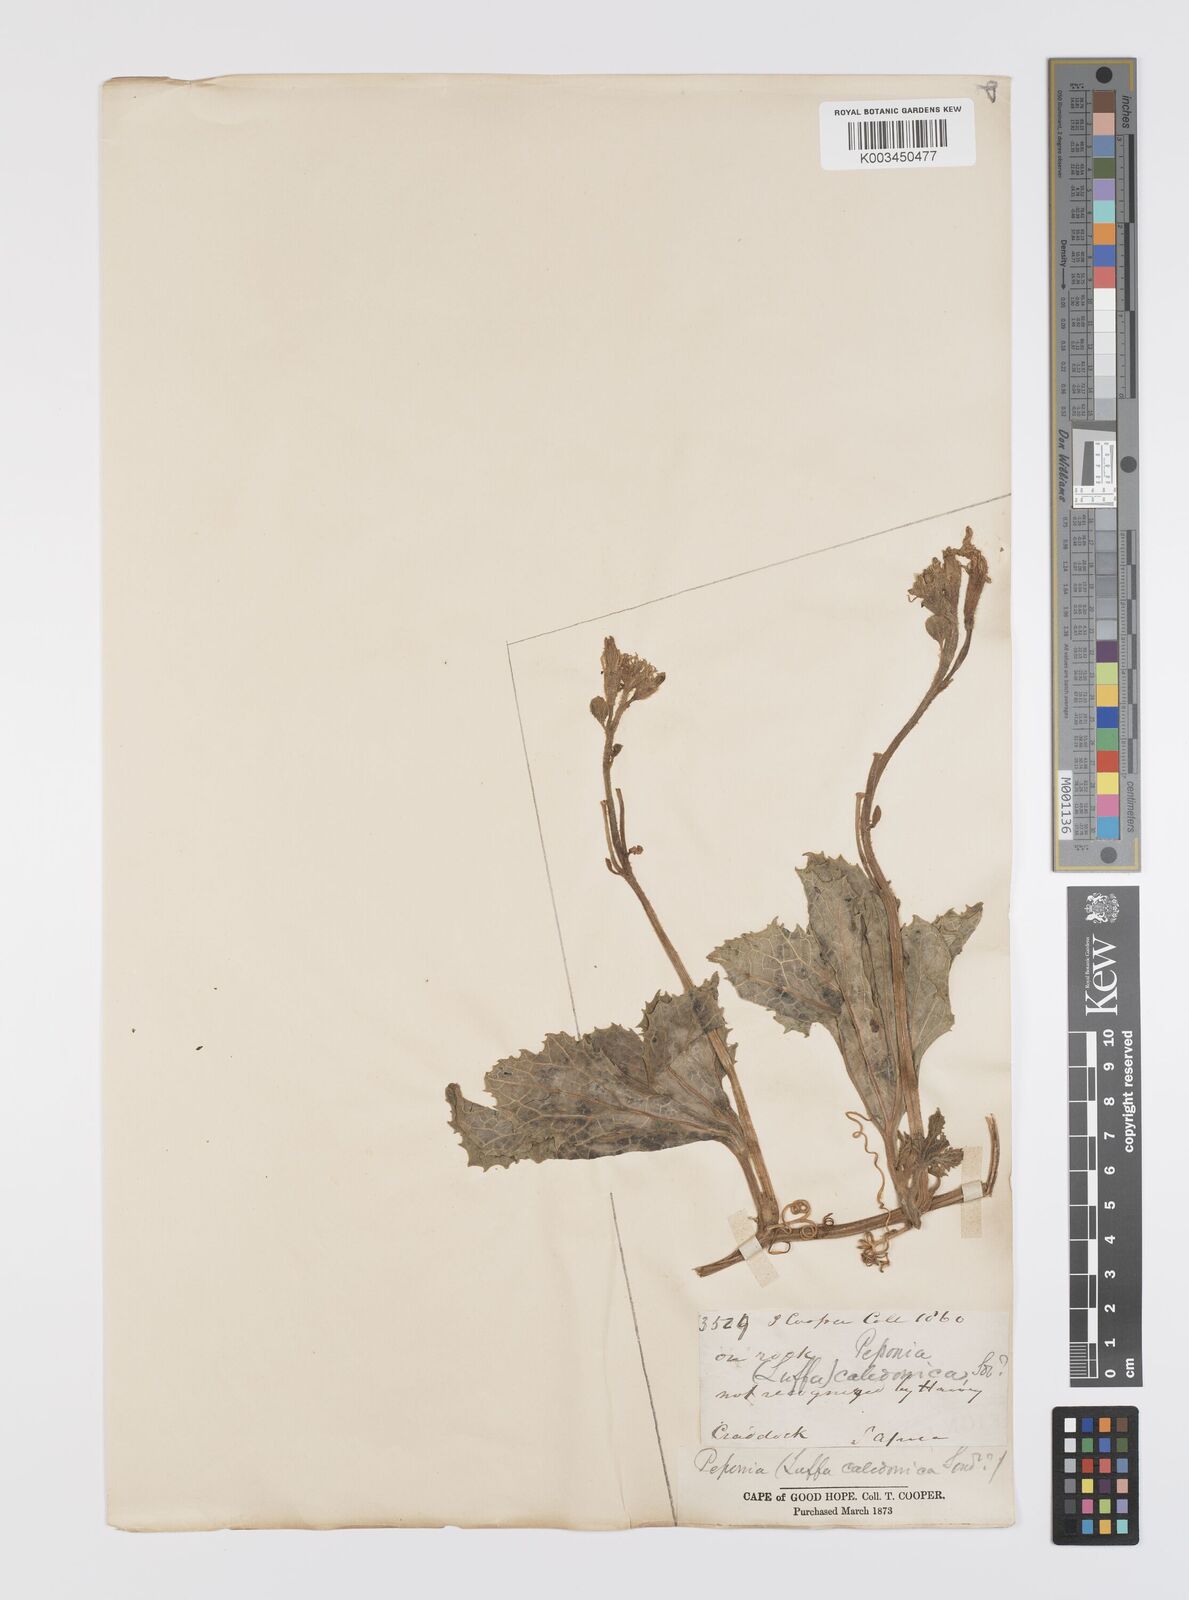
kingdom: Plantae
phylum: Tracheophyta
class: Magnoliopsida
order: Cucurbitales
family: Cucurbitaceae
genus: Peponium
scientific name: Peponium caledonicum
